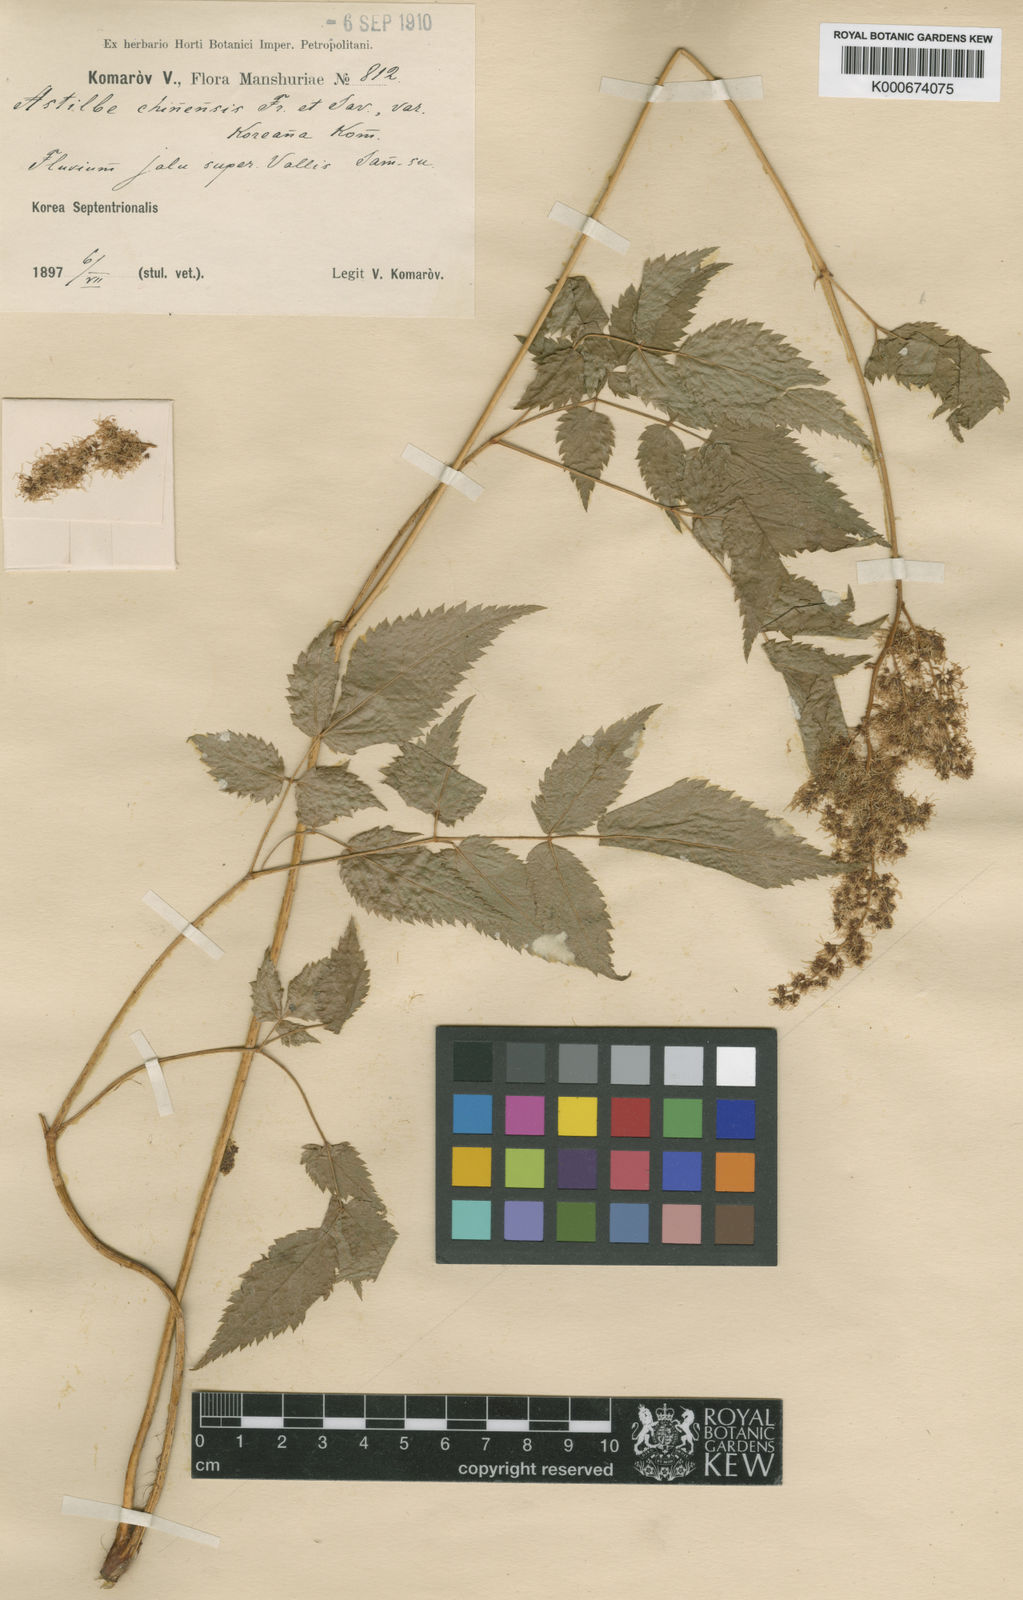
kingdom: Plantae
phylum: Tracheophyta
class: Magnoliopsida
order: Saxifragales
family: Saxifragaceae
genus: Astilbe
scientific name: Astilbe grandis
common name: Korean astilbe
